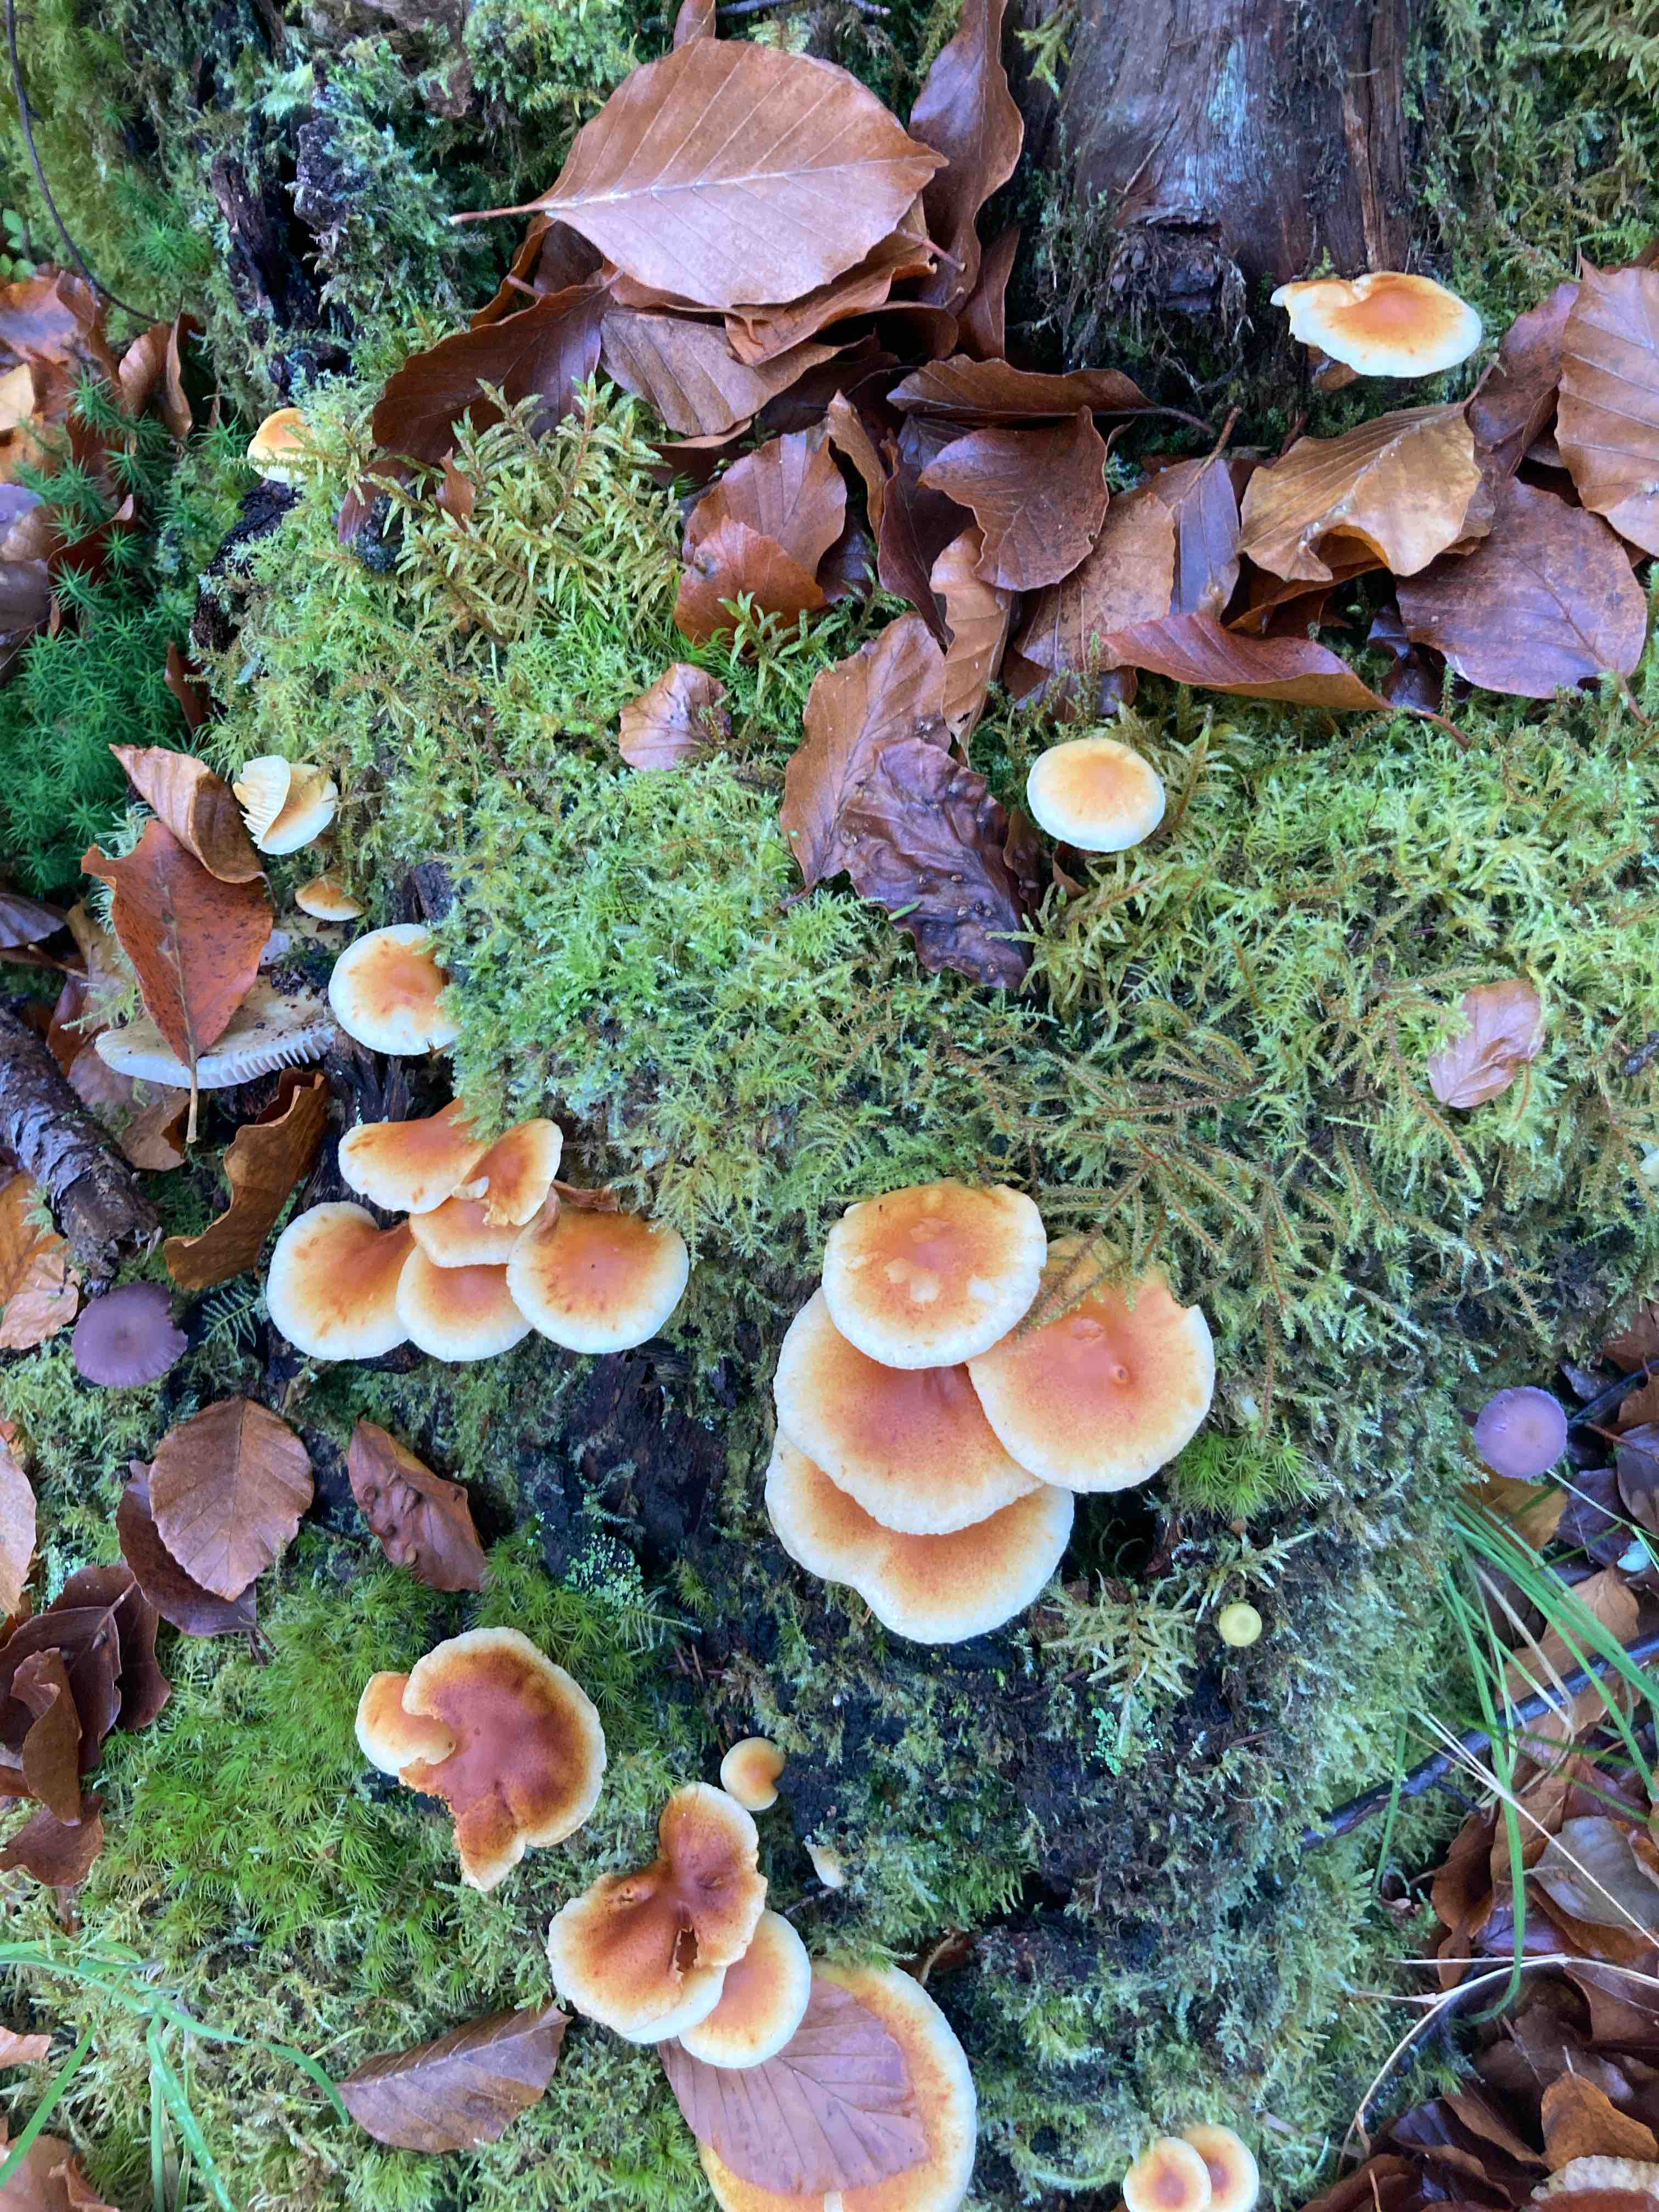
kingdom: Fungi
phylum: Basidiomycota
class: Agaricomycetes
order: Agaricales
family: Hymenogastraceae
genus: Gymnopilus
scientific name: Gymnopilus penetrans
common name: plettet flammehat
